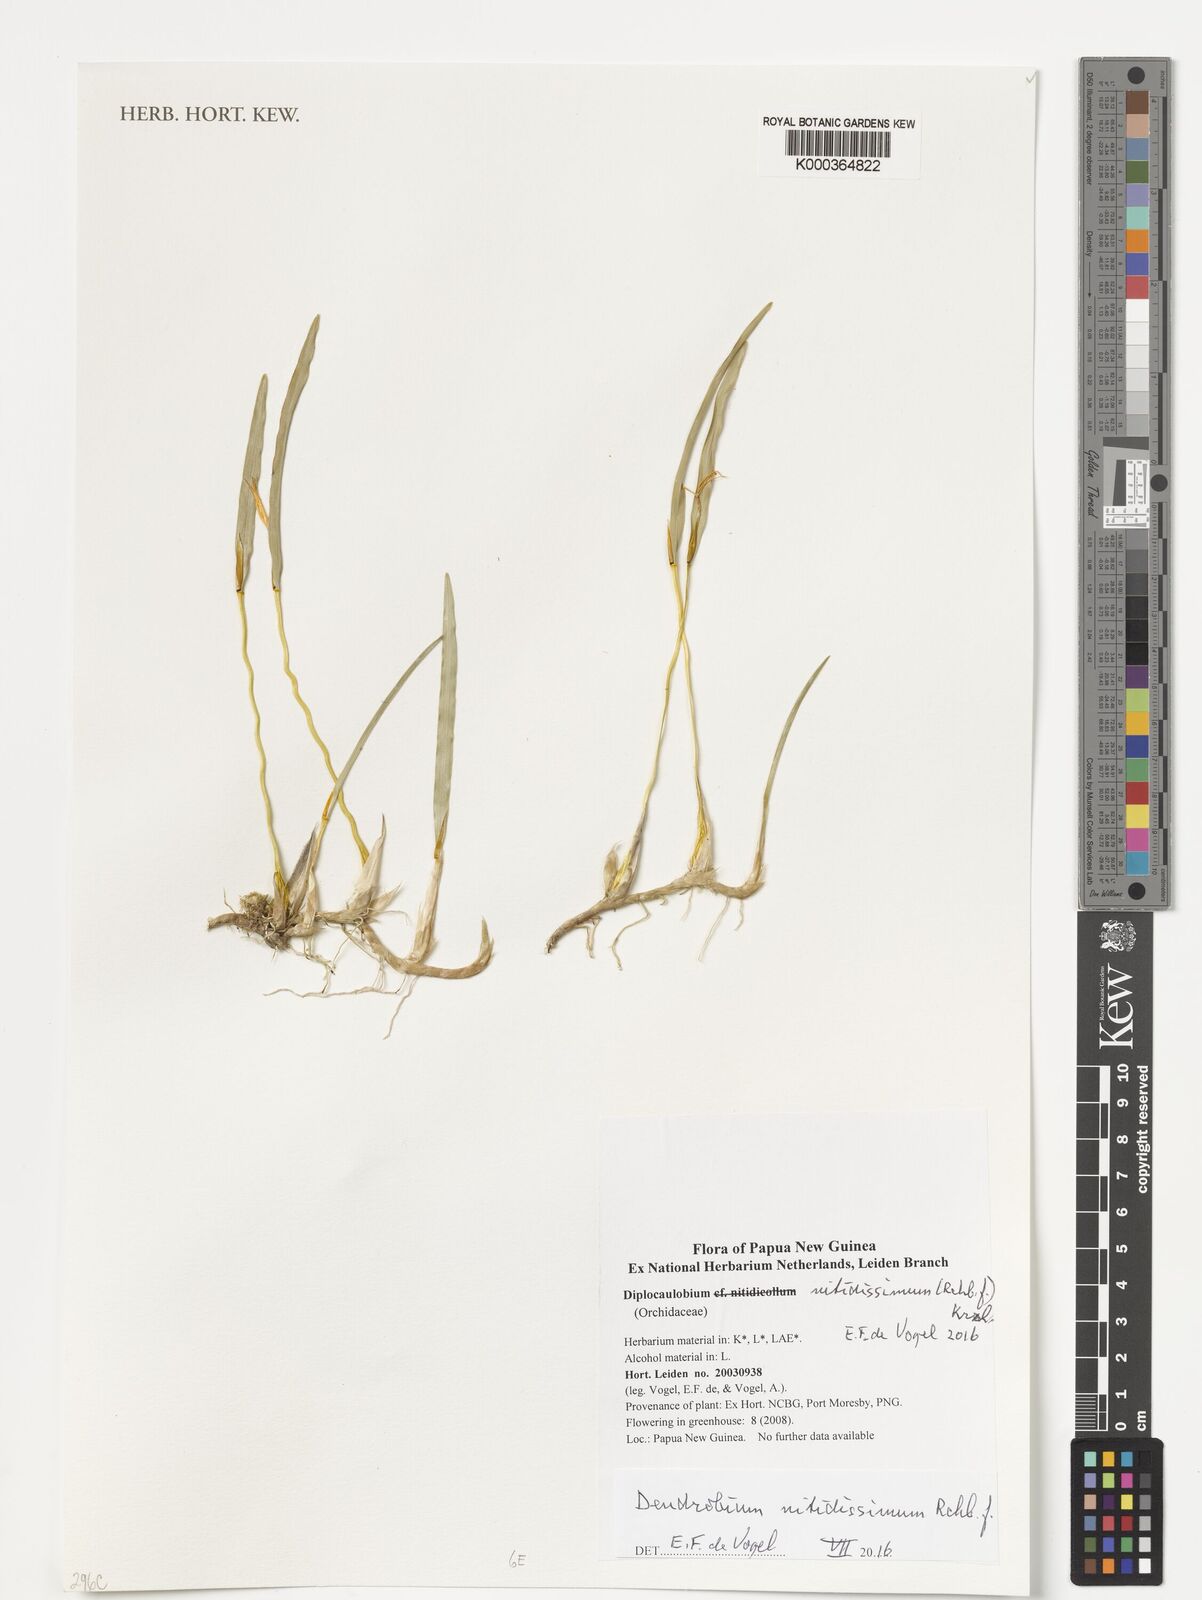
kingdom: Plantae
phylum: Tracheophyta
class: Liliopsida
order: Asparagales
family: Orchidaceae
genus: Dendrobium
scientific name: Dendrobium nitidicolle
